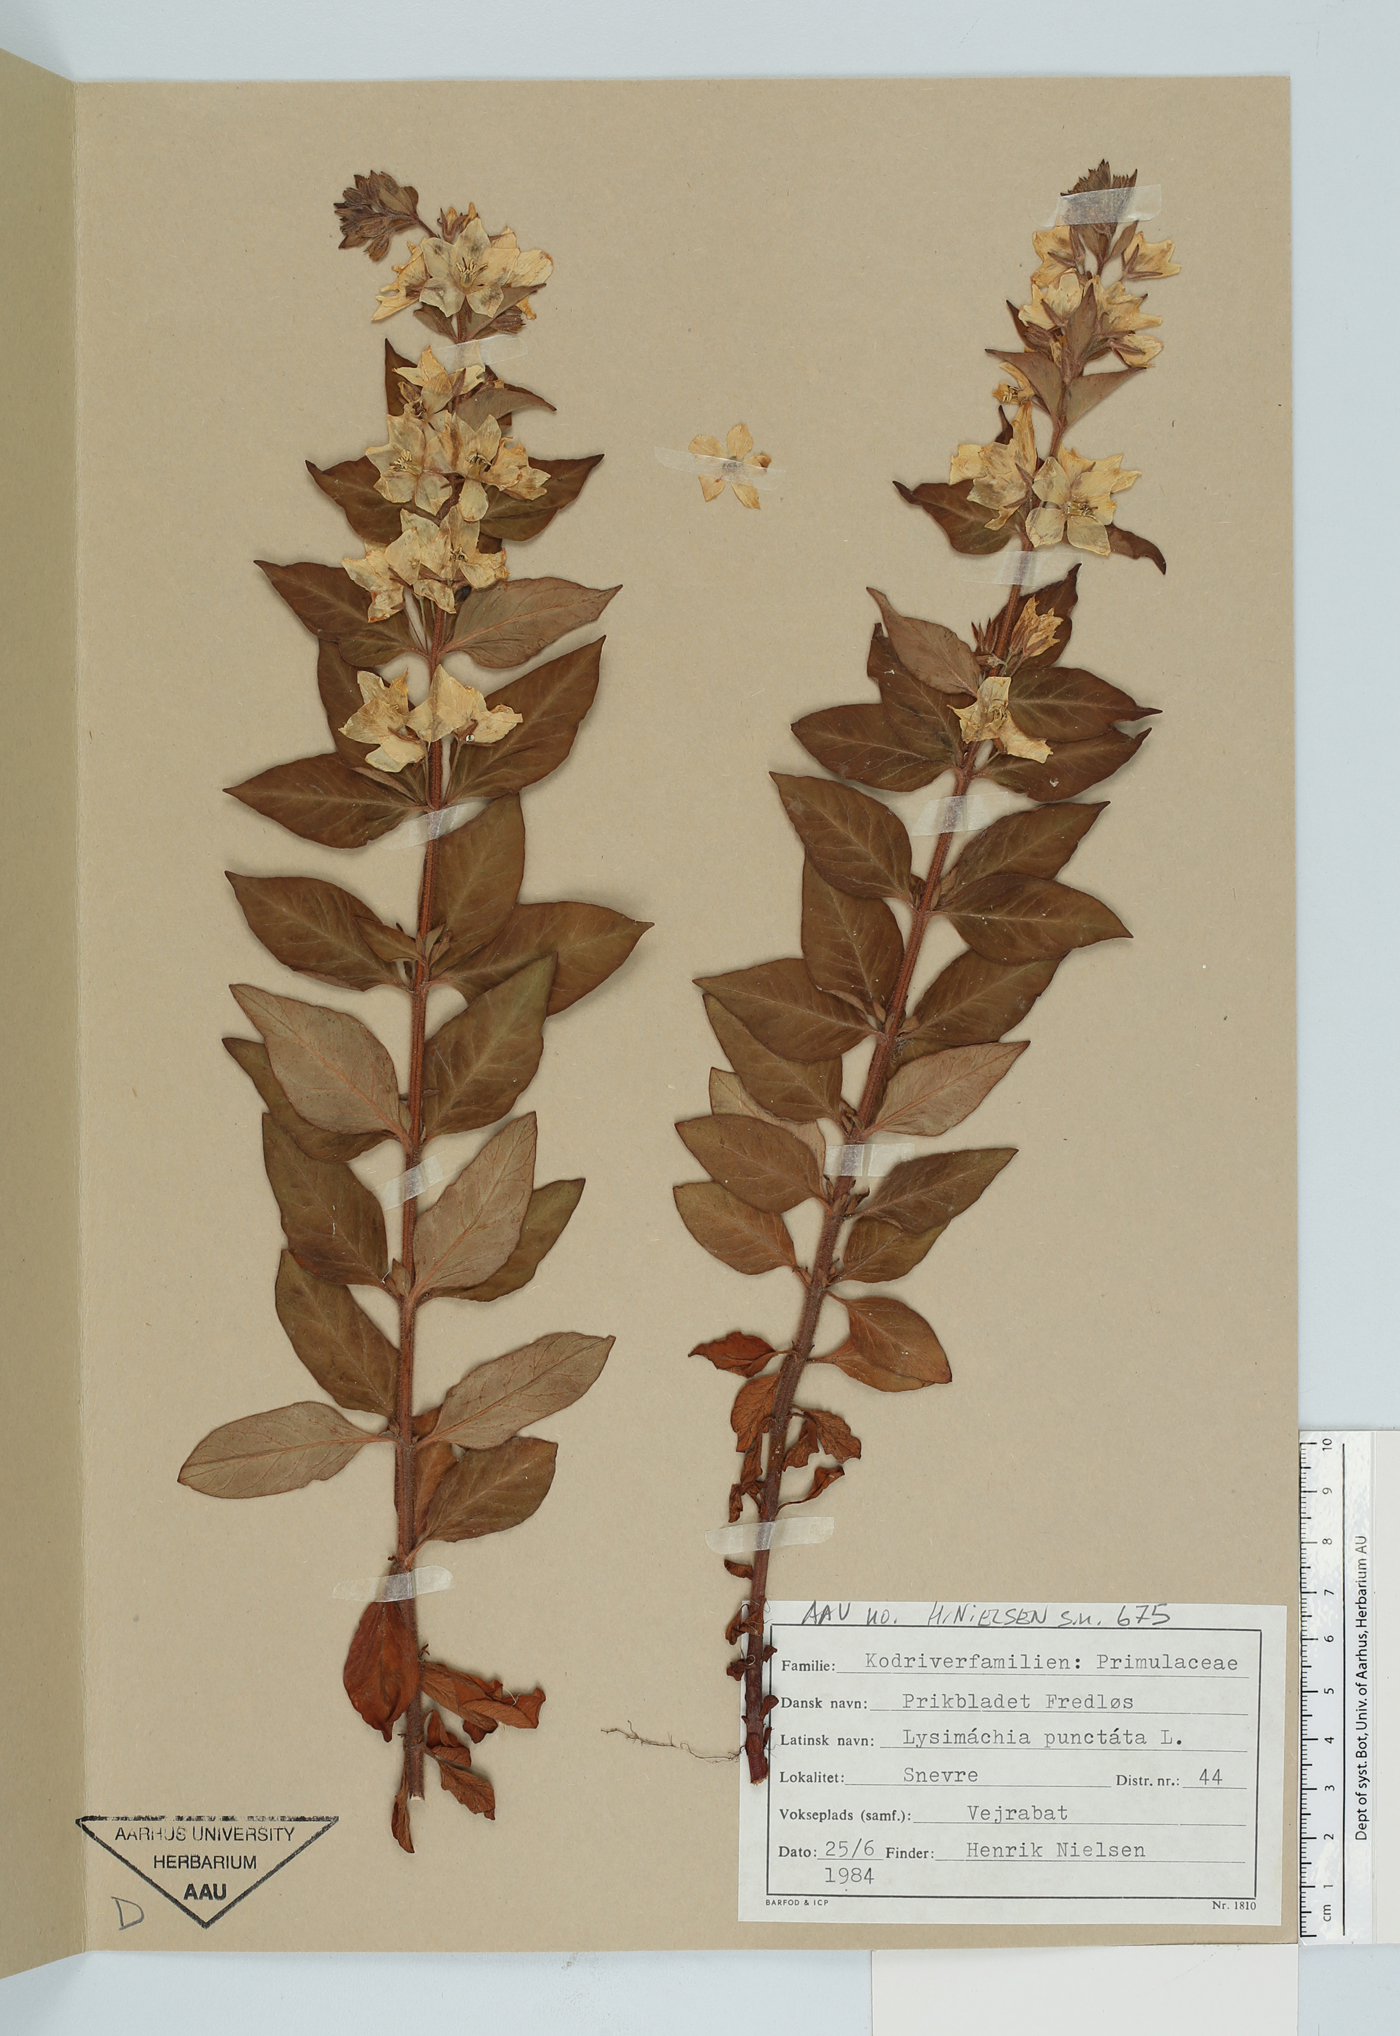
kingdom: Plantae
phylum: Tracheophyta
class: Magnoliopsida
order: Ericales
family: Primulaceae
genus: Lysimachia
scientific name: Lysimachia punctata
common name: Dotted loosestrife
